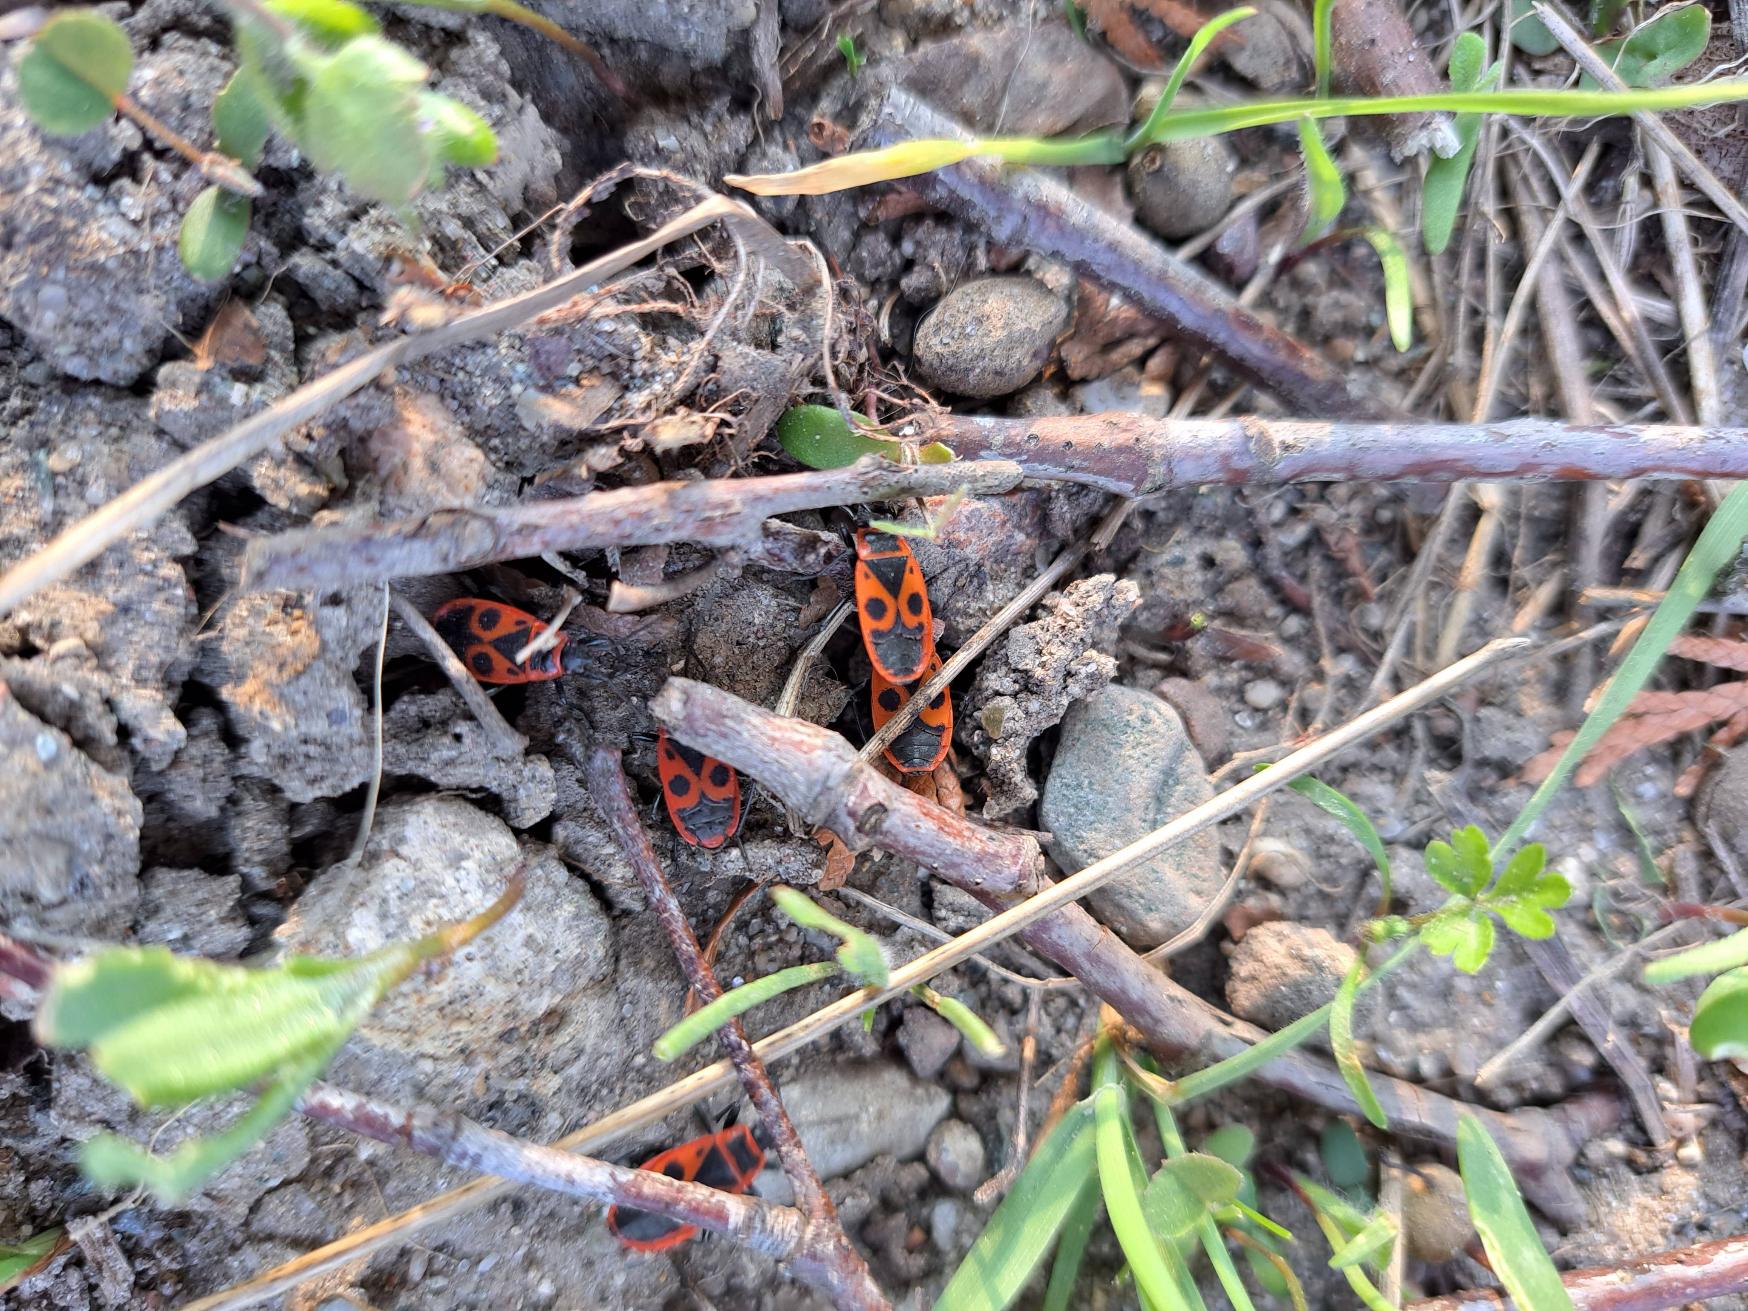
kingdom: Animalia
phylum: Arthropoda
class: Insecta
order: Hemiptera
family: Pyrrhocoridae
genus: Pyrrhocoris
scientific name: Pyrrhocoris apterus
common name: Ildtæge
